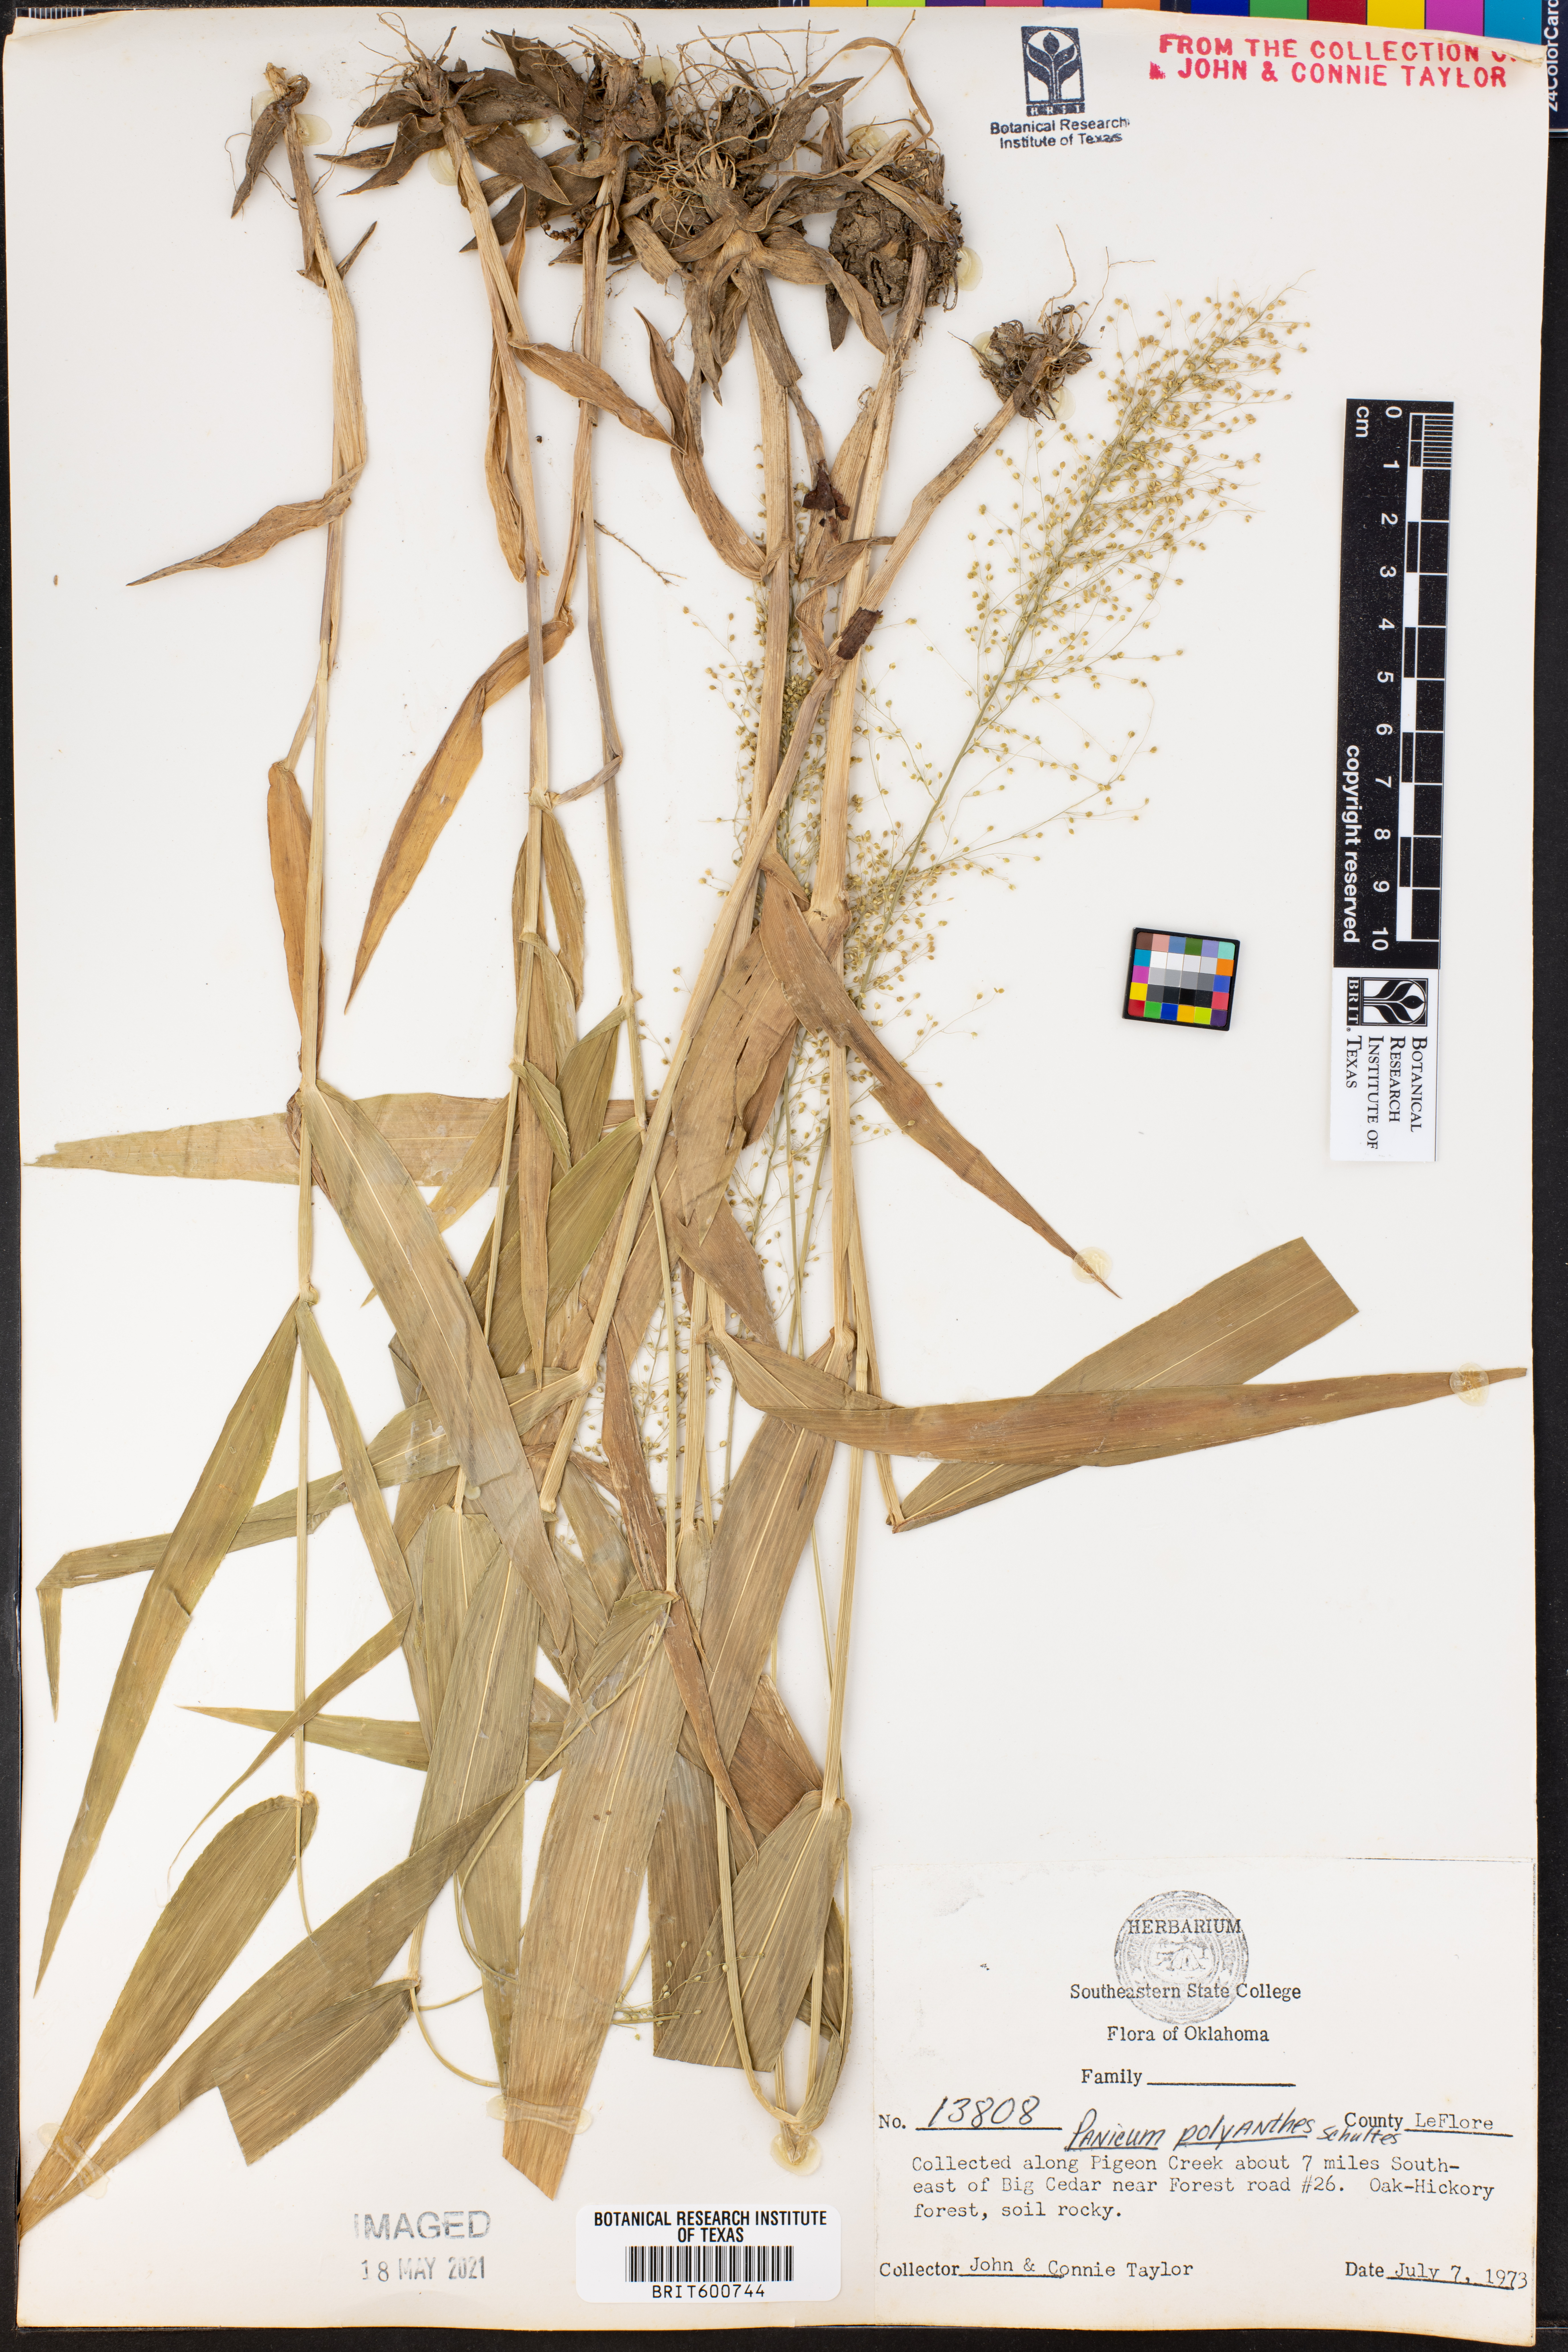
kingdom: Plantae
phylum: Tracheophyta
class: Liliopsida
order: Poales
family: Poaceae
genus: Dichanthelium
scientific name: Dichanthelium polyanthes
